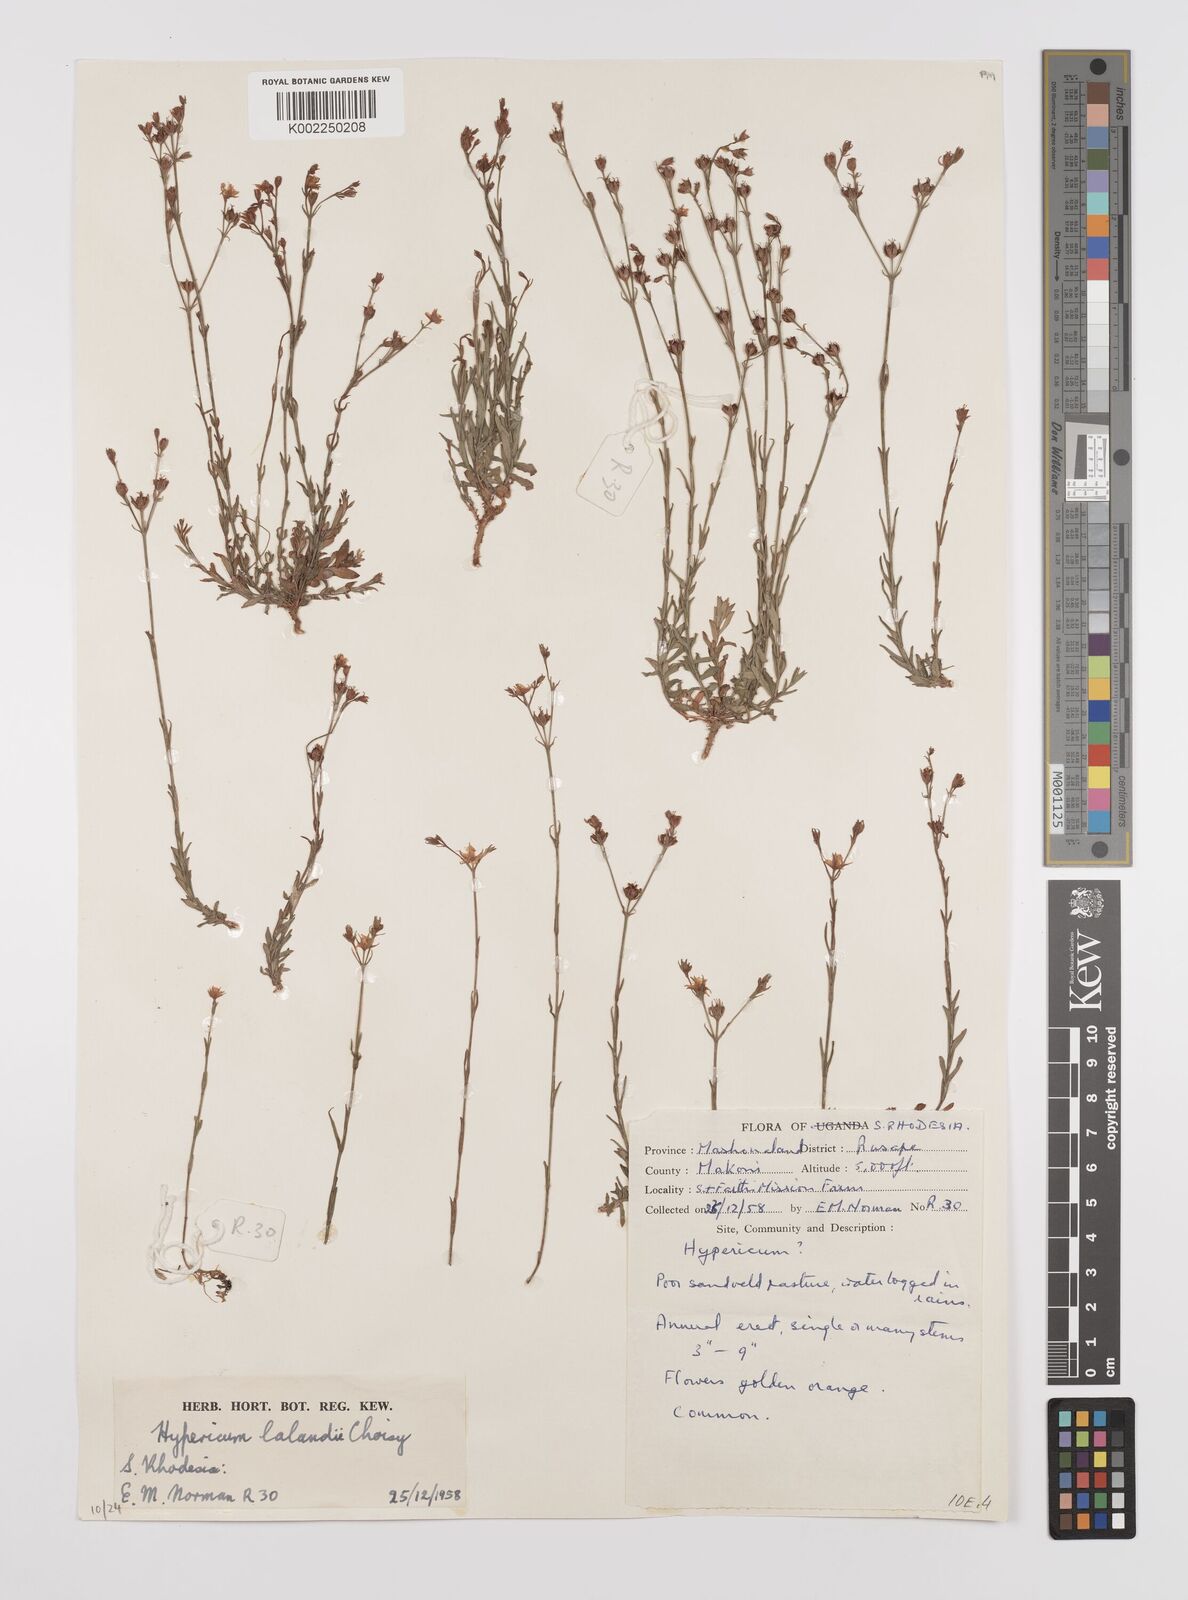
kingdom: Plantae
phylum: Tracheophyta
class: Magnoliopsida
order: Malpighiales
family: Hypericaceae
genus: Hypericum
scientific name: Hypericum lalandii
